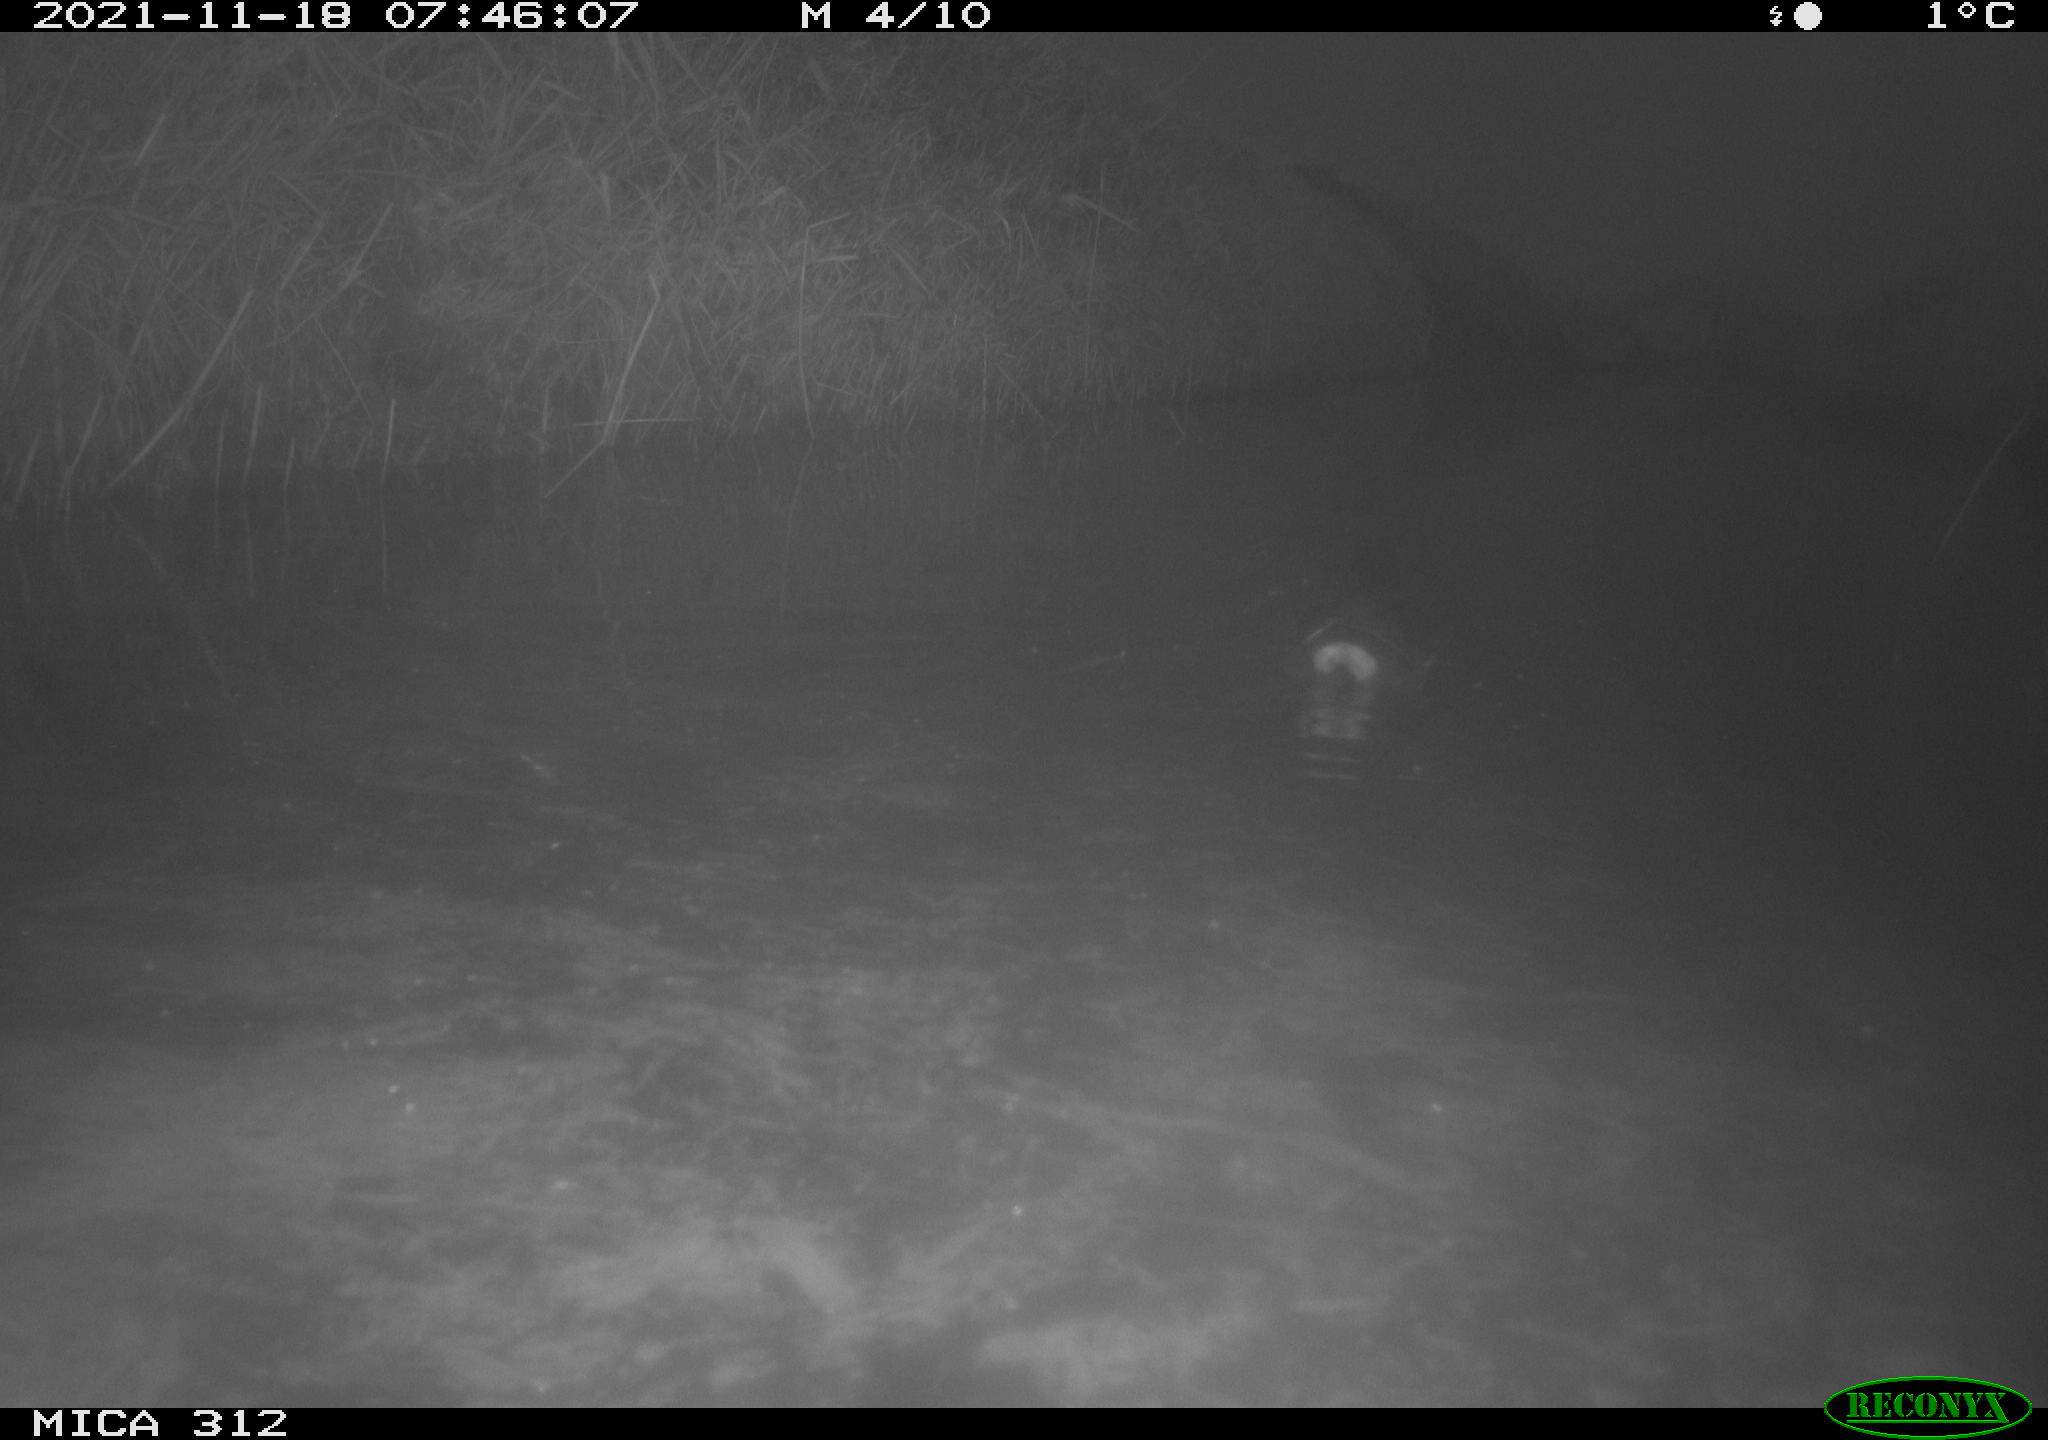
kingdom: Animalia
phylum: Chordata
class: Aves
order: Gruiformes
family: Rallidae
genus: Gallinula
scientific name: Gallinula chloropus
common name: Common moorhen
